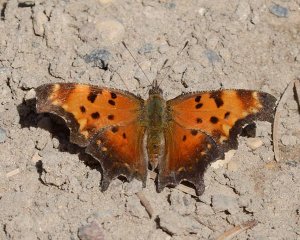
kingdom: Animalia
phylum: Arthropoda
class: Insecta
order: Lepidoptera
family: Nymphalidae
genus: Polygonia
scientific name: Polygonia progne
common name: Gray Comma
